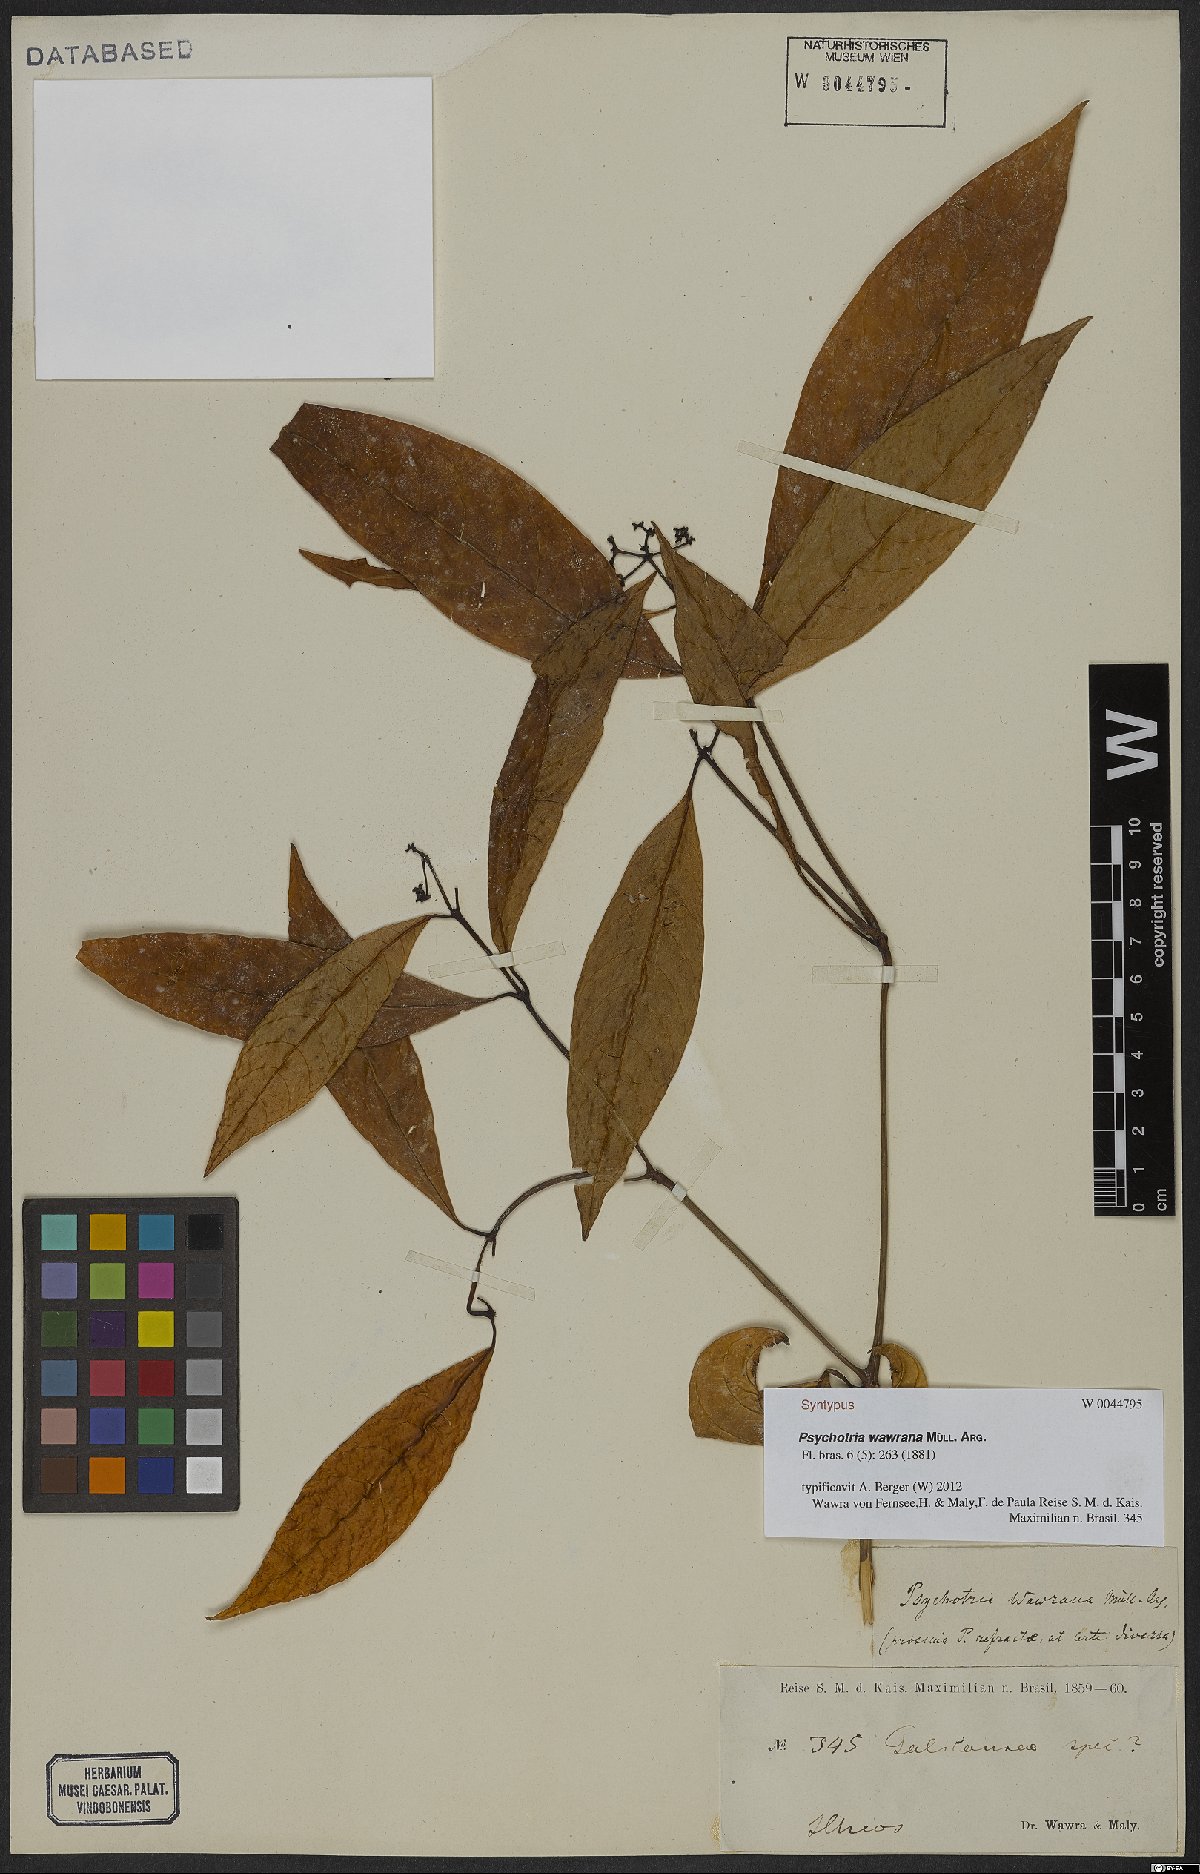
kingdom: Plantae
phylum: Tracheophyta
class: Magnoliopsida
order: Gentianales
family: Rubiaceae
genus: Psychotria
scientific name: Psychotria wawrana
